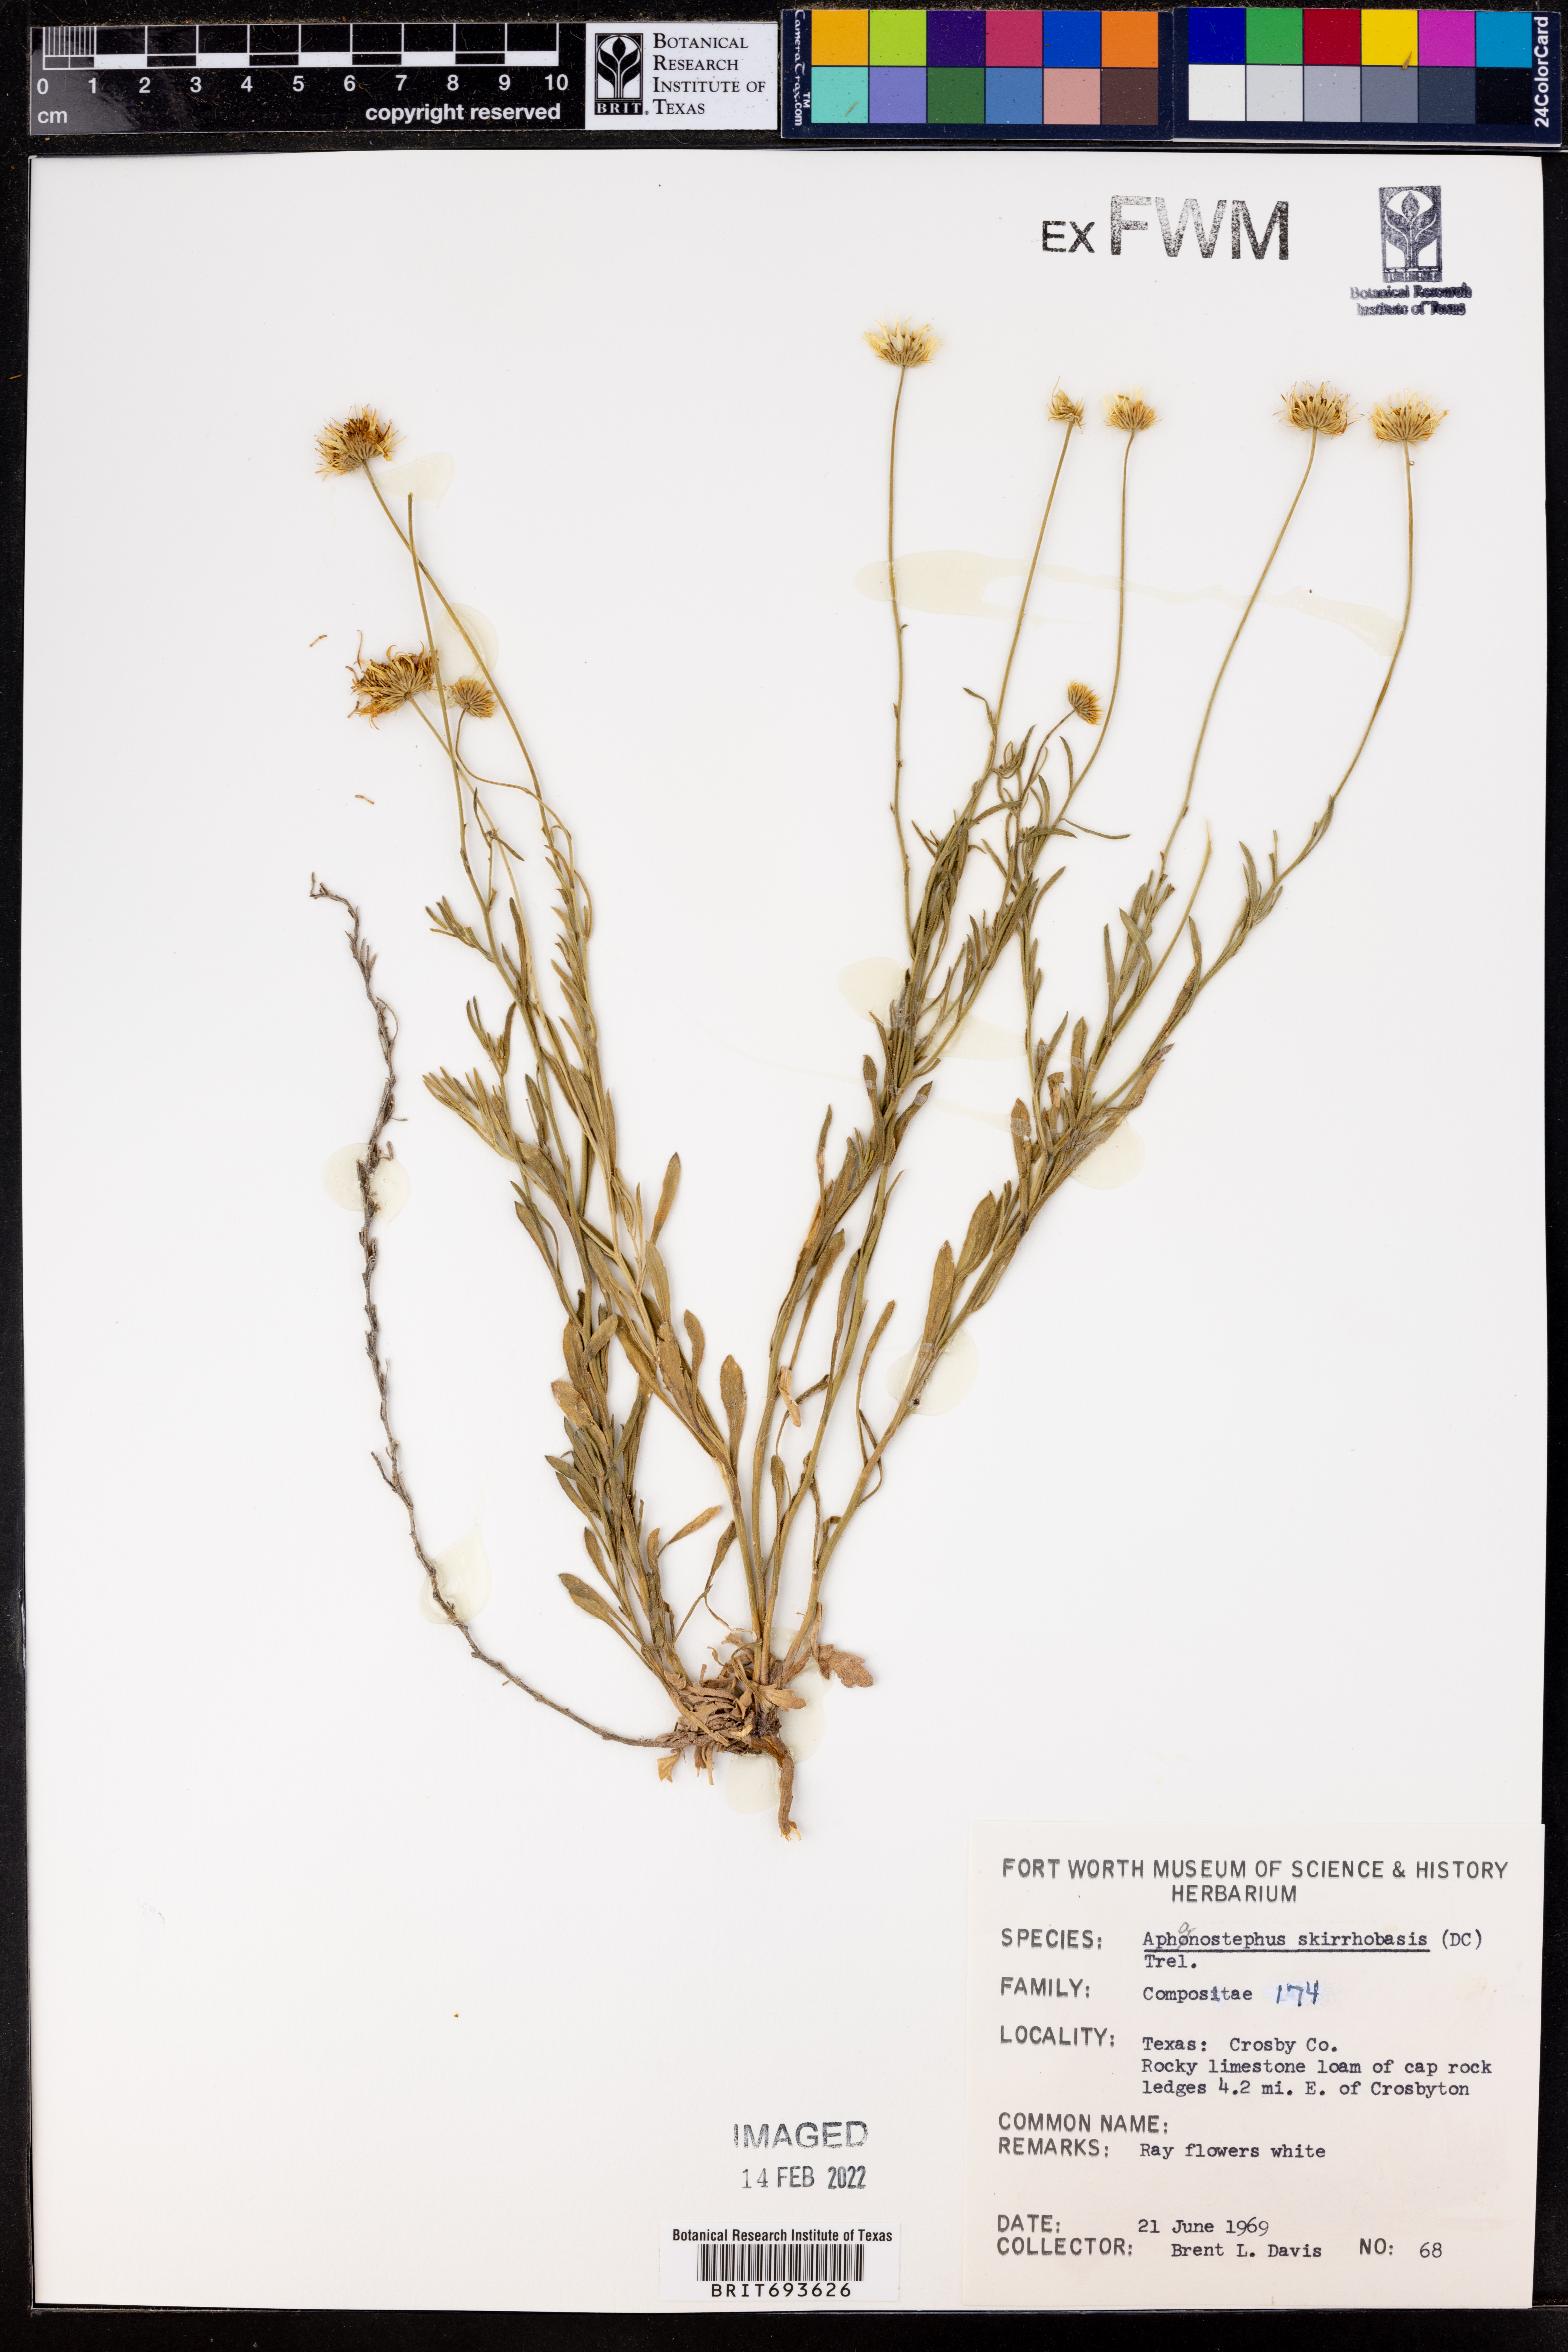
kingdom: Plantae
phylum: Tracheophyta
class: Magnoliopsida
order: Asterales
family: Asteraceae
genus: Aphanostephus
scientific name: Aphanostephus skirrhobasis
